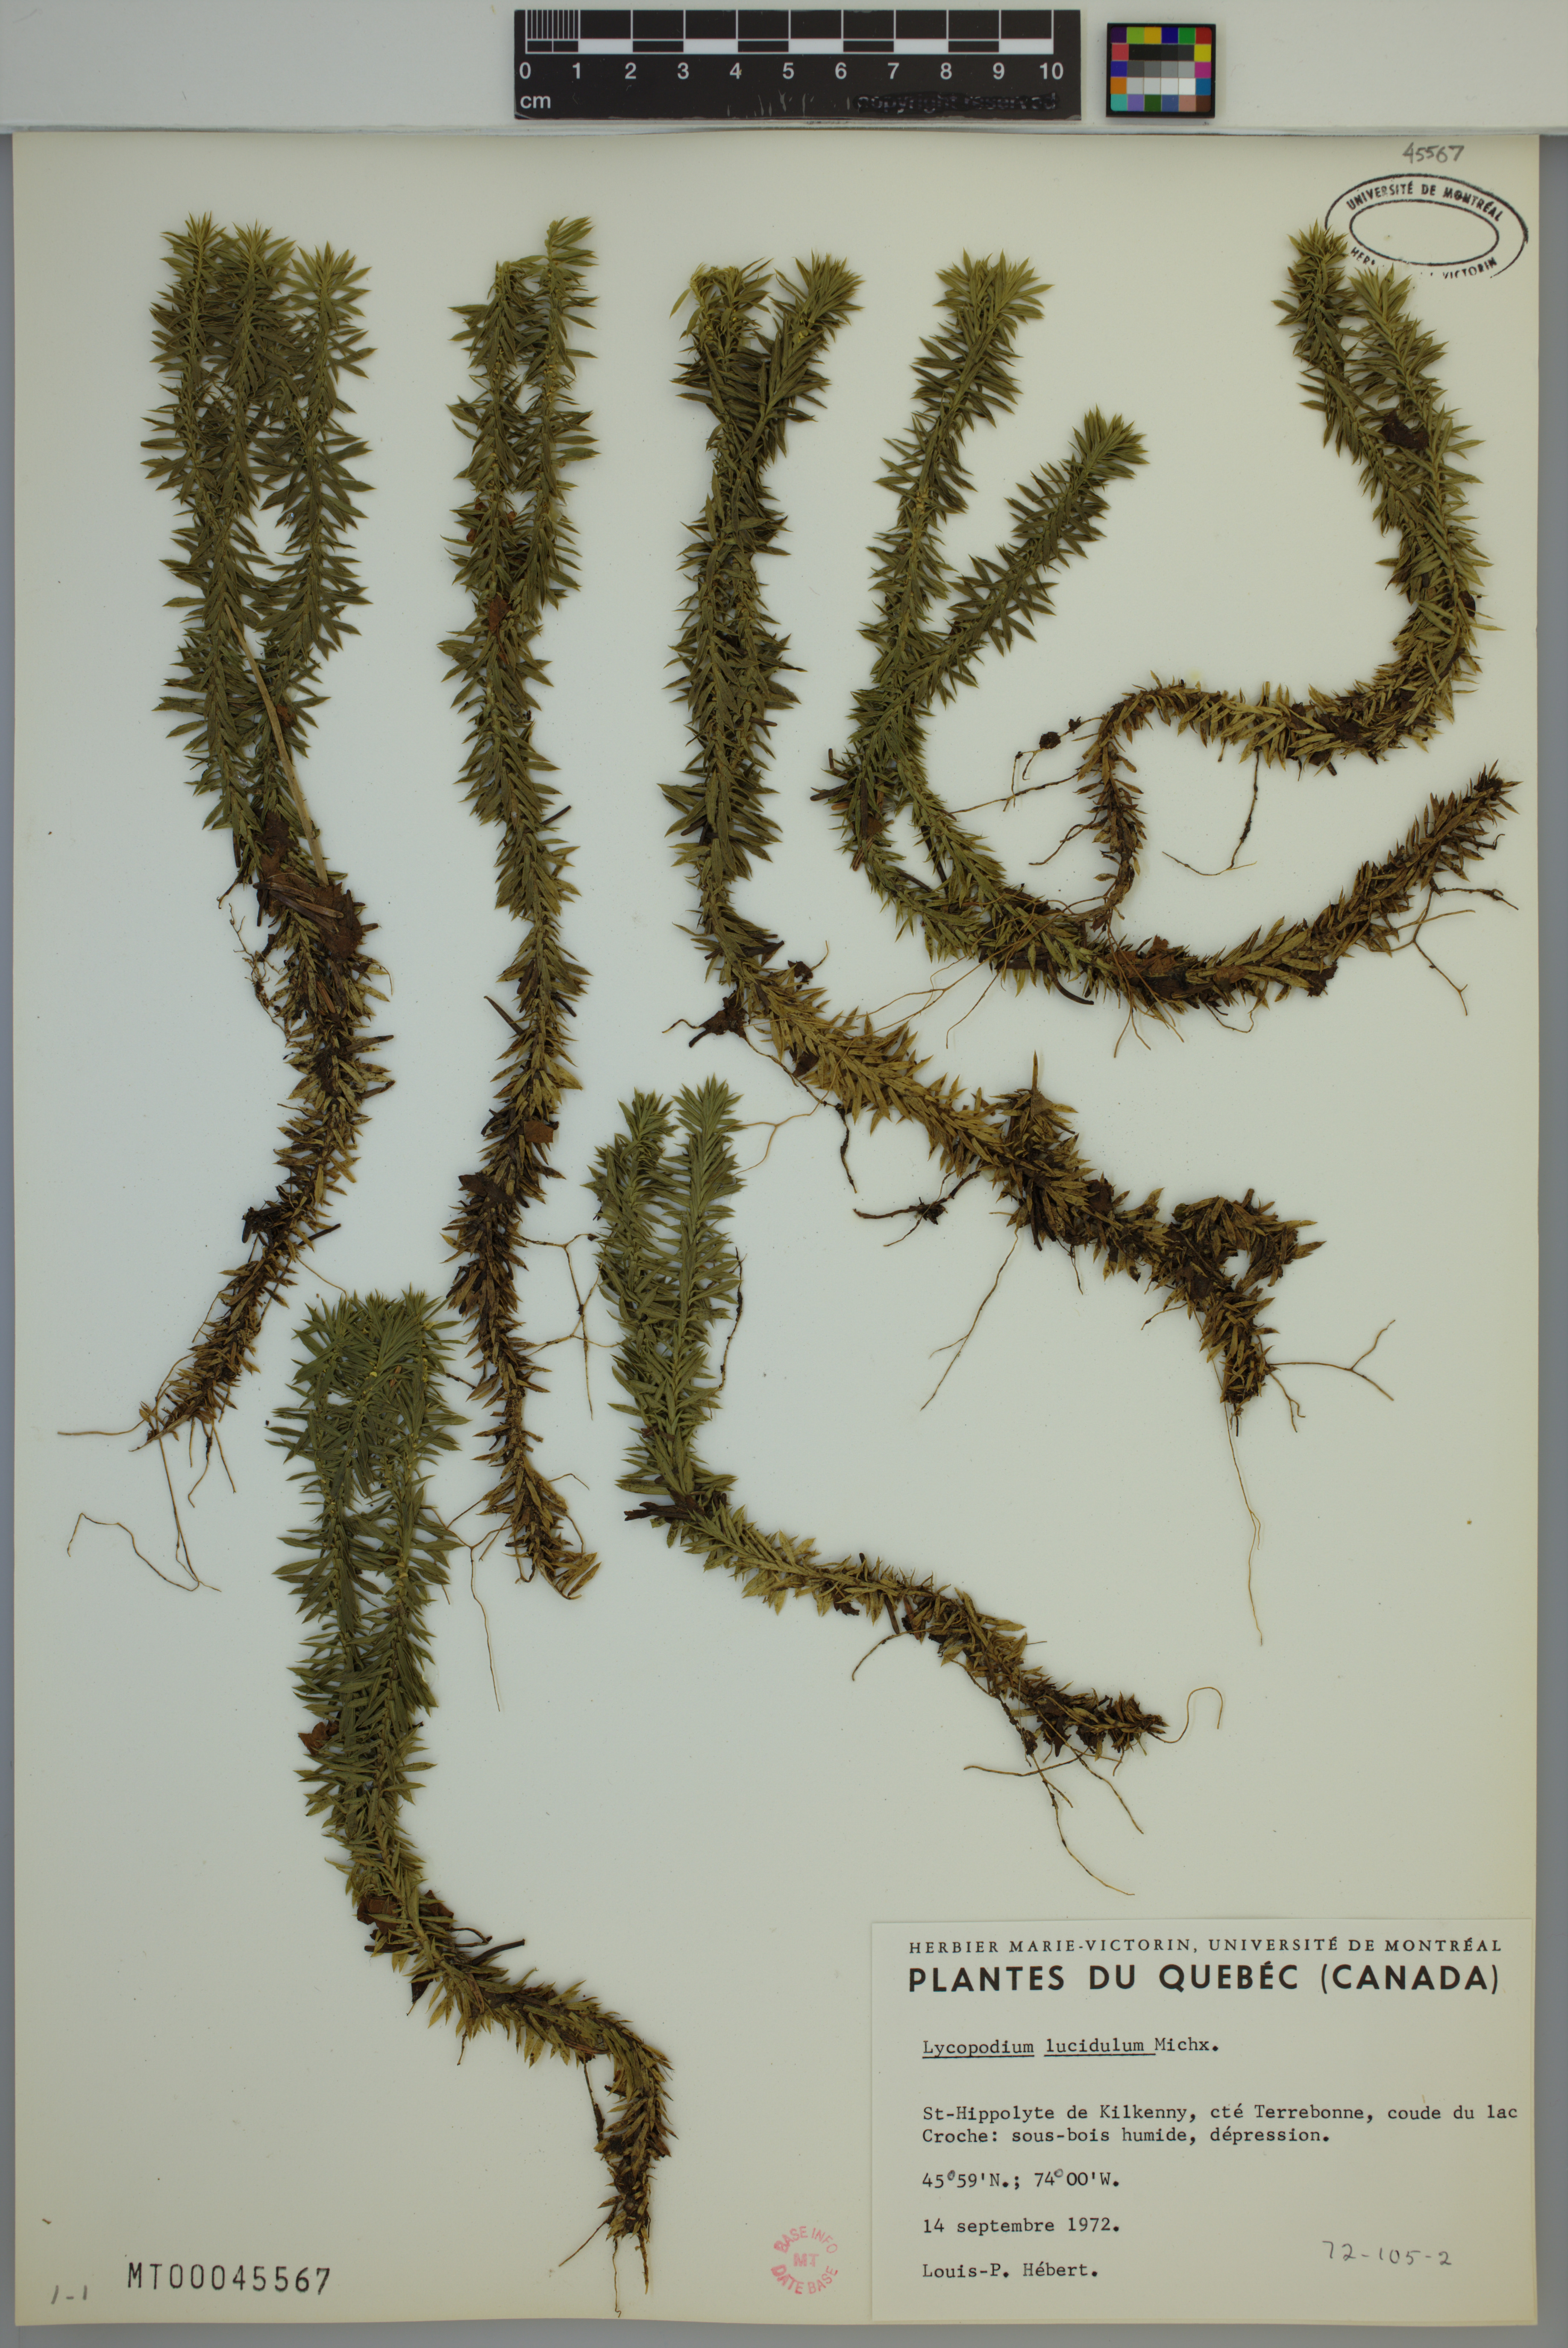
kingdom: Plantae
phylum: Tracheophyta
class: Lycopodiopsida
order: Lycopodiales
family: Lycopodiaceae
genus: Huperzia
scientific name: Huperzia lucidula
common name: Shining clubmoss
